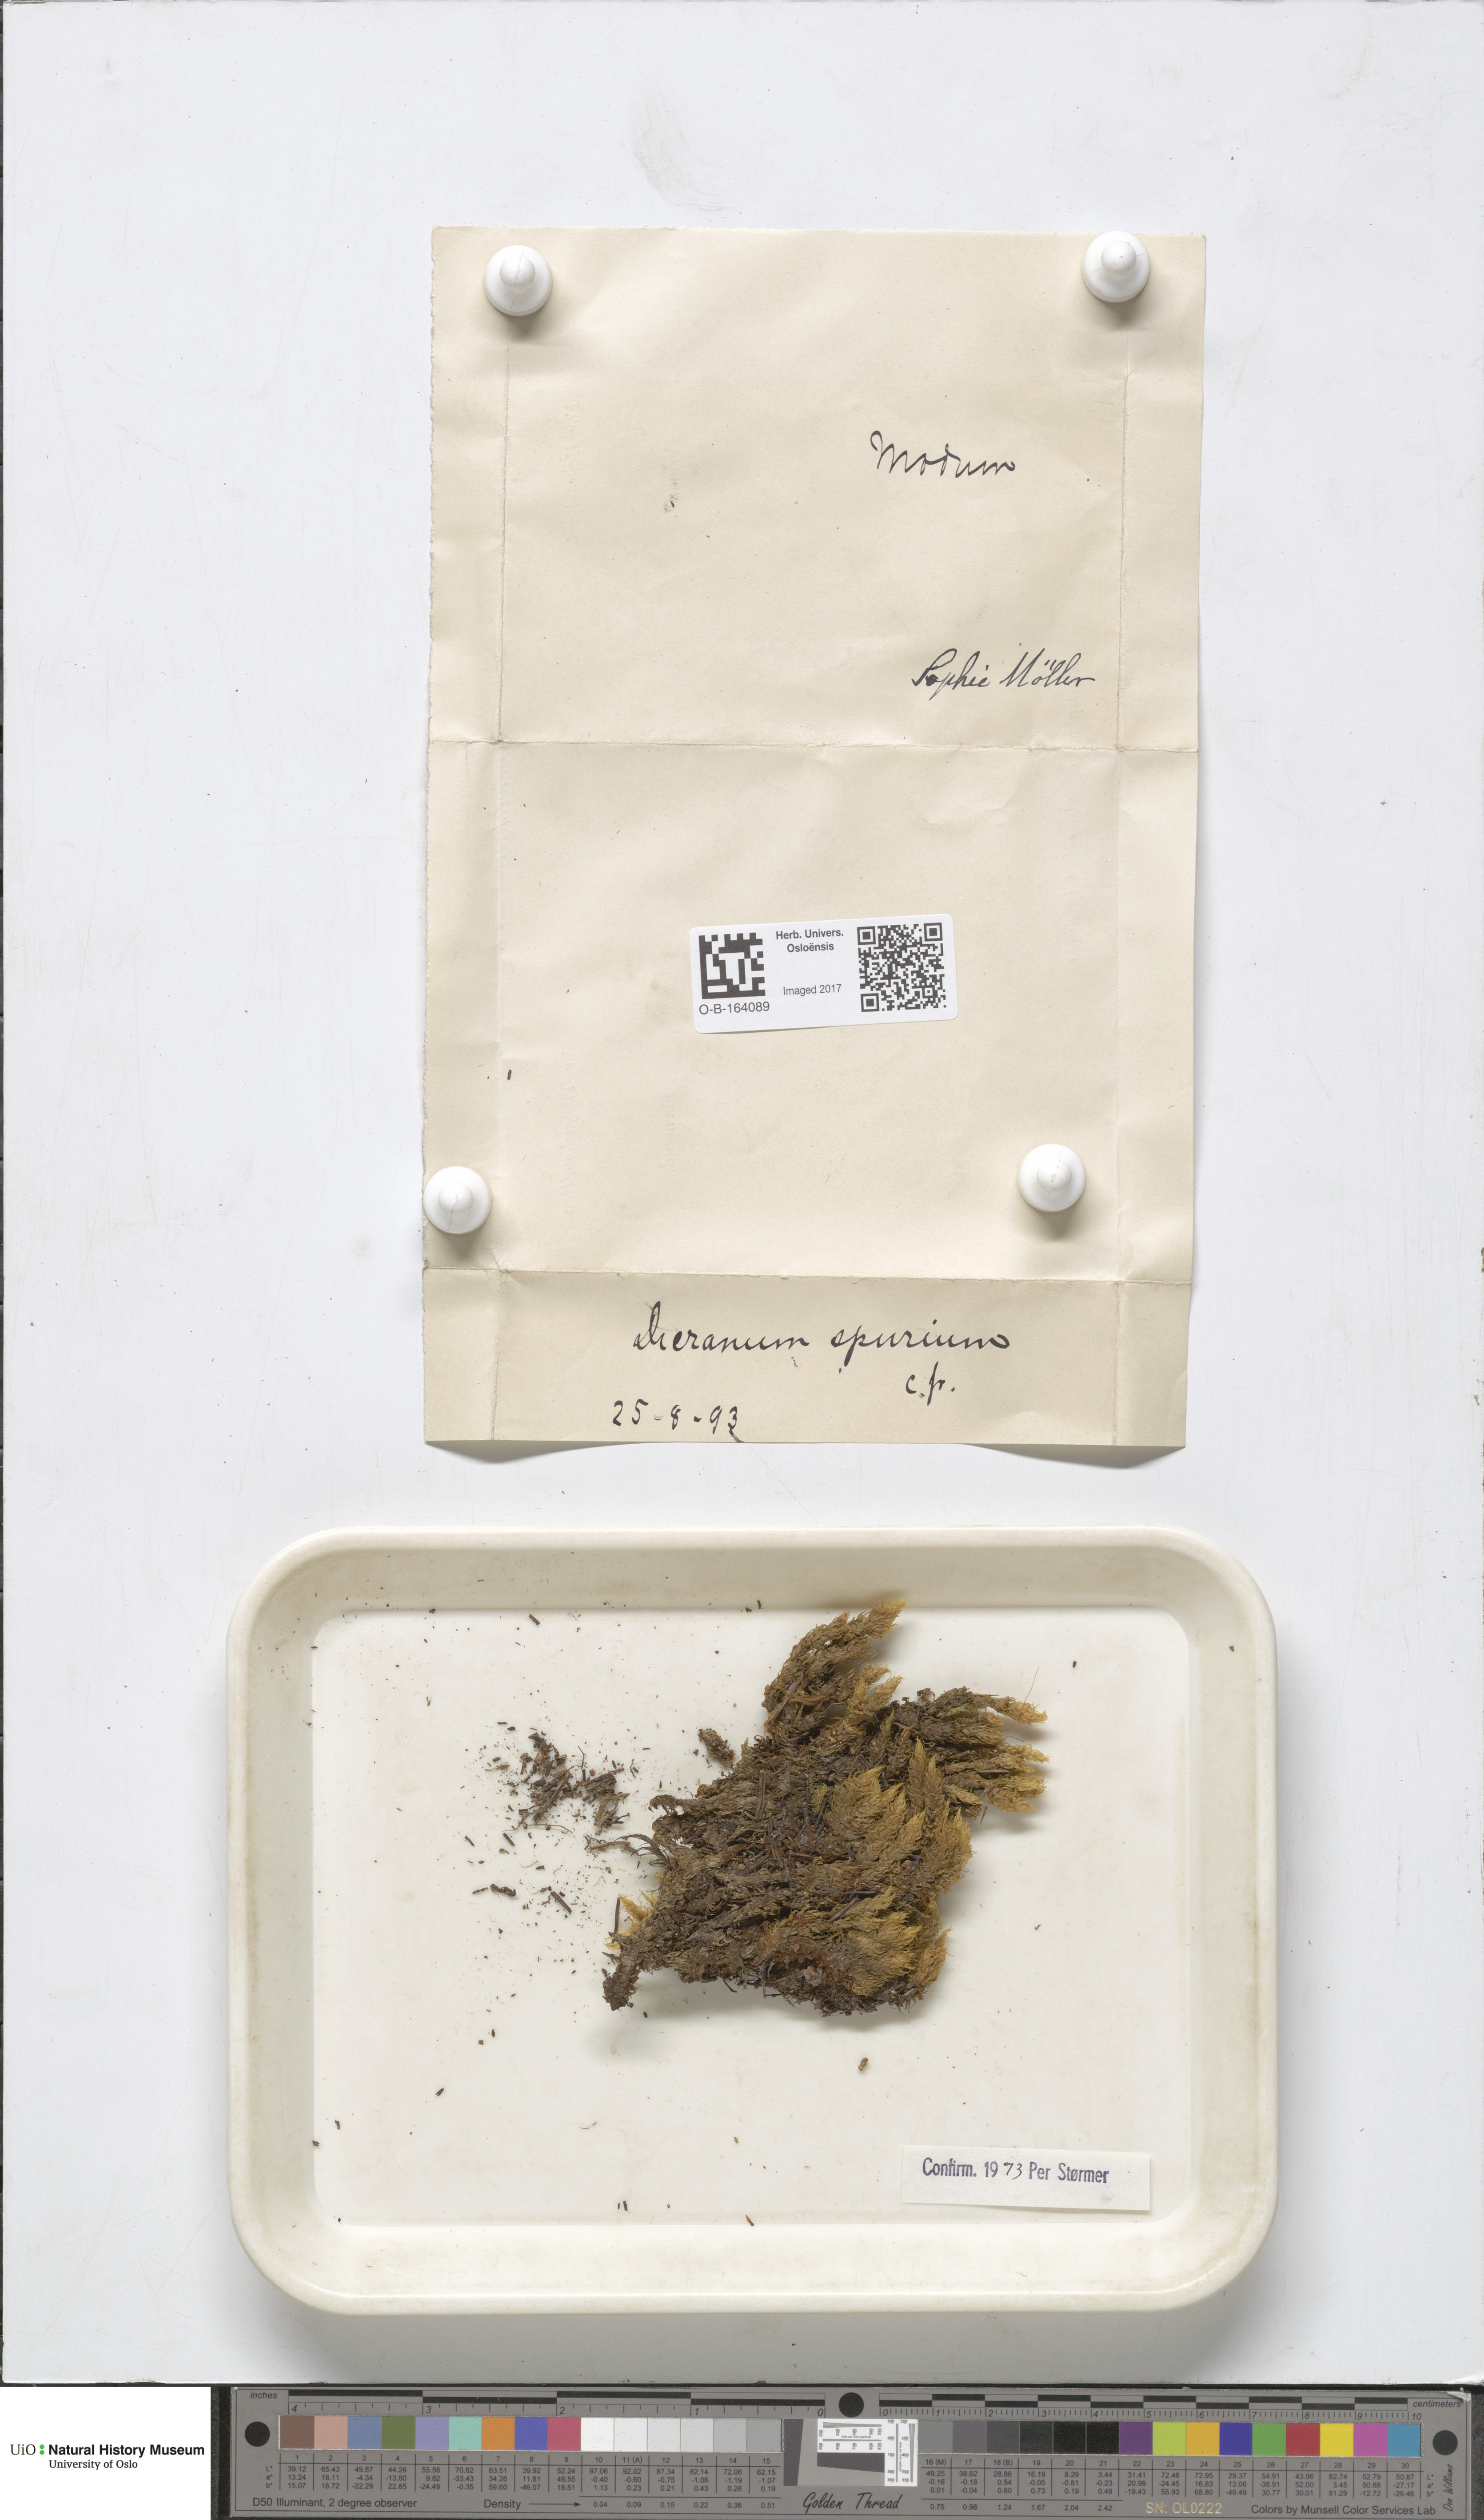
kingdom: Plantae
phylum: Bryophyta
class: Bryopsida
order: Dicranales
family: Dicranaceae
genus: Dicranum
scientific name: Dicranum spurium
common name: Spurred broom moss
